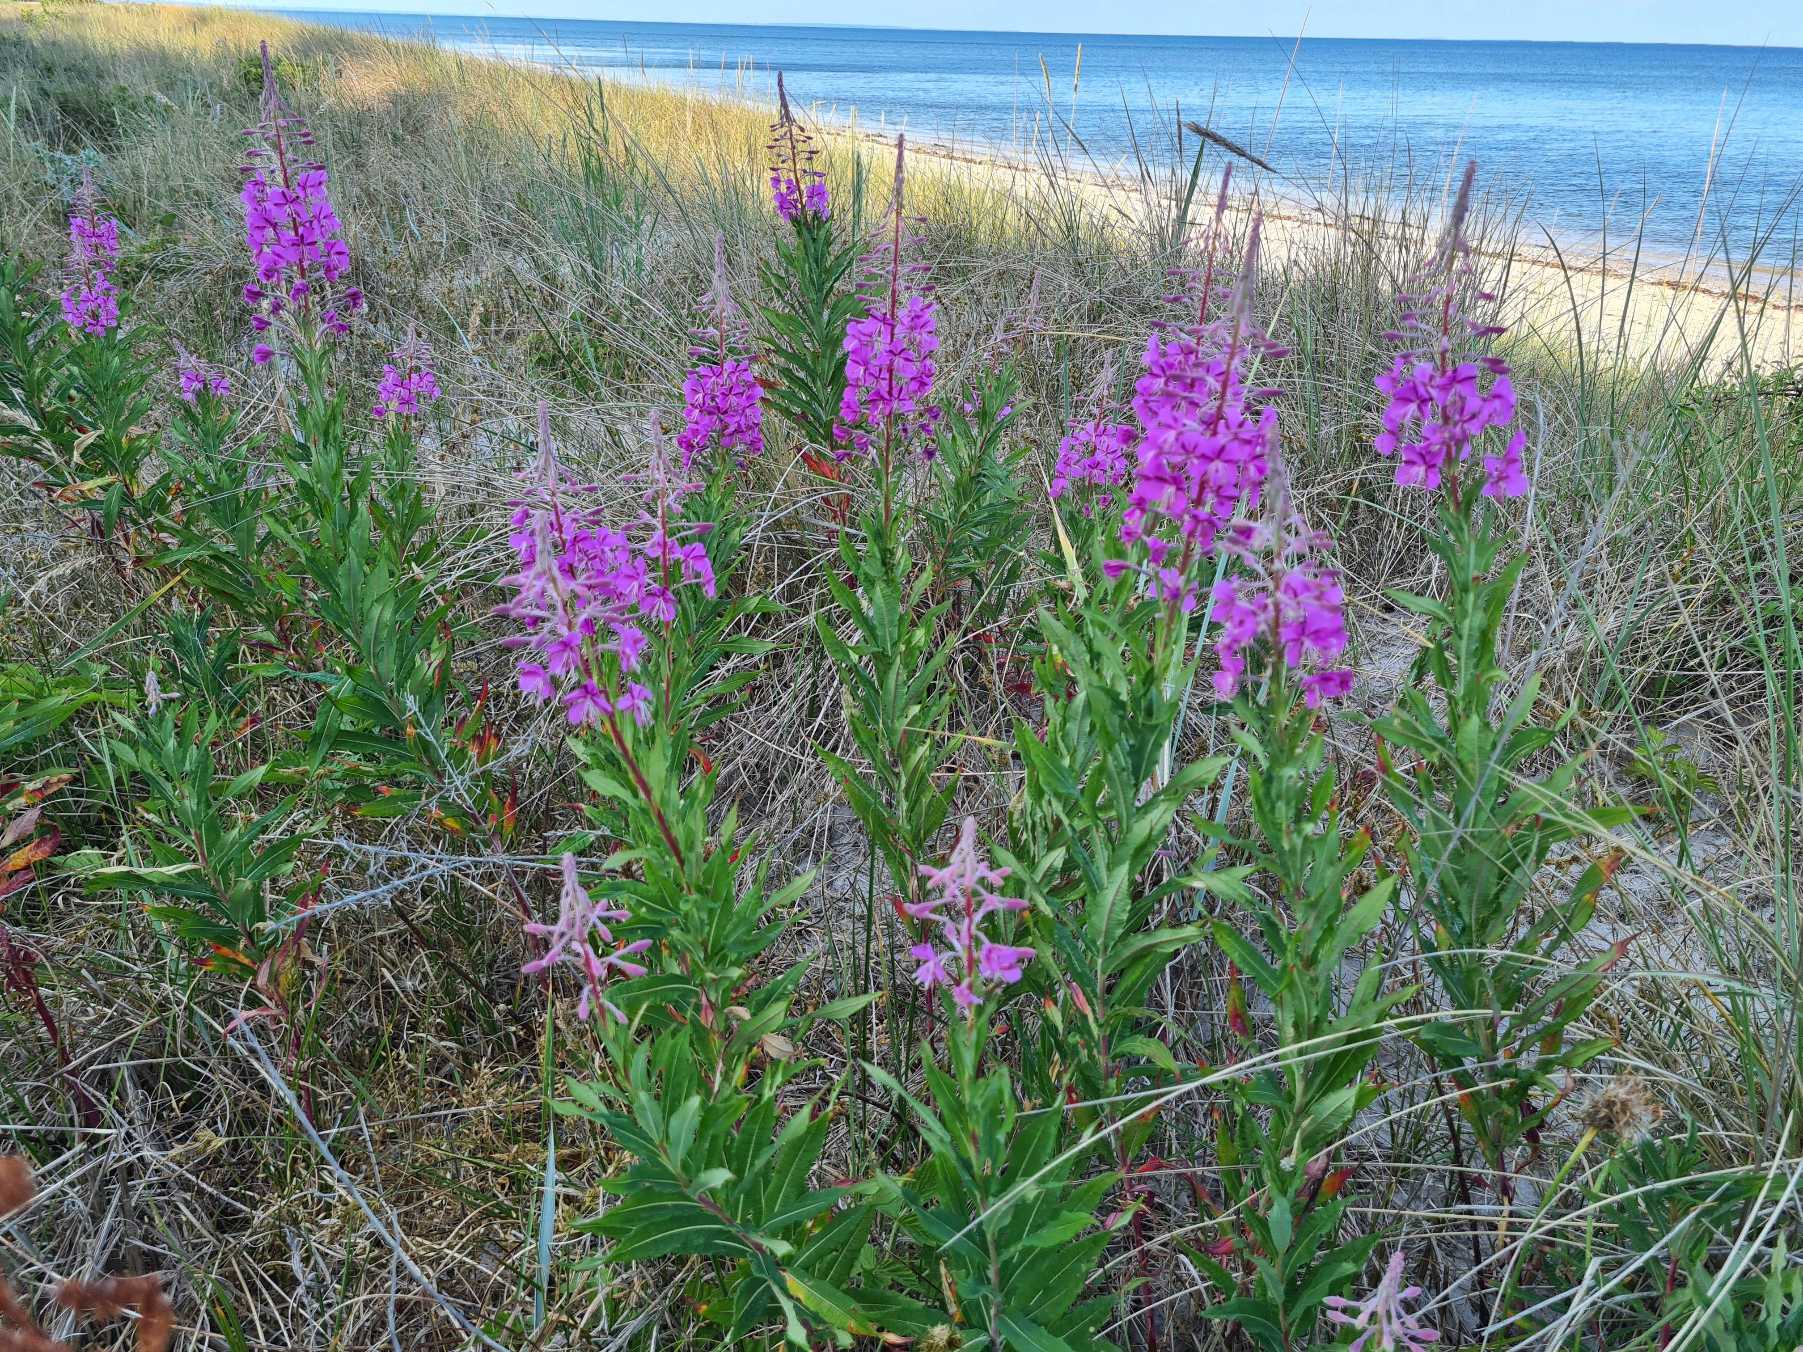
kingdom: Plantae
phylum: Tracheophyta
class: Magnoliopsida
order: Myrtales
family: Onagraceae
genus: Chamaenerion
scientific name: Chamaenerion angustifolium
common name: Gederams
